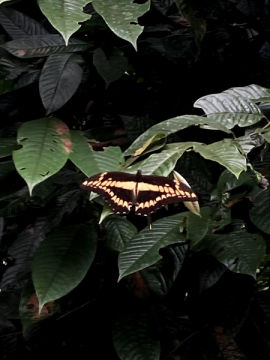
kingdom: Animalia
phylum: Arthropoda
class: Insecta
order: Lepidoptera
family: Papilionidae
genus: Papilio
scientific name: Papilio thoas
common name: Thoas Swallowtail
